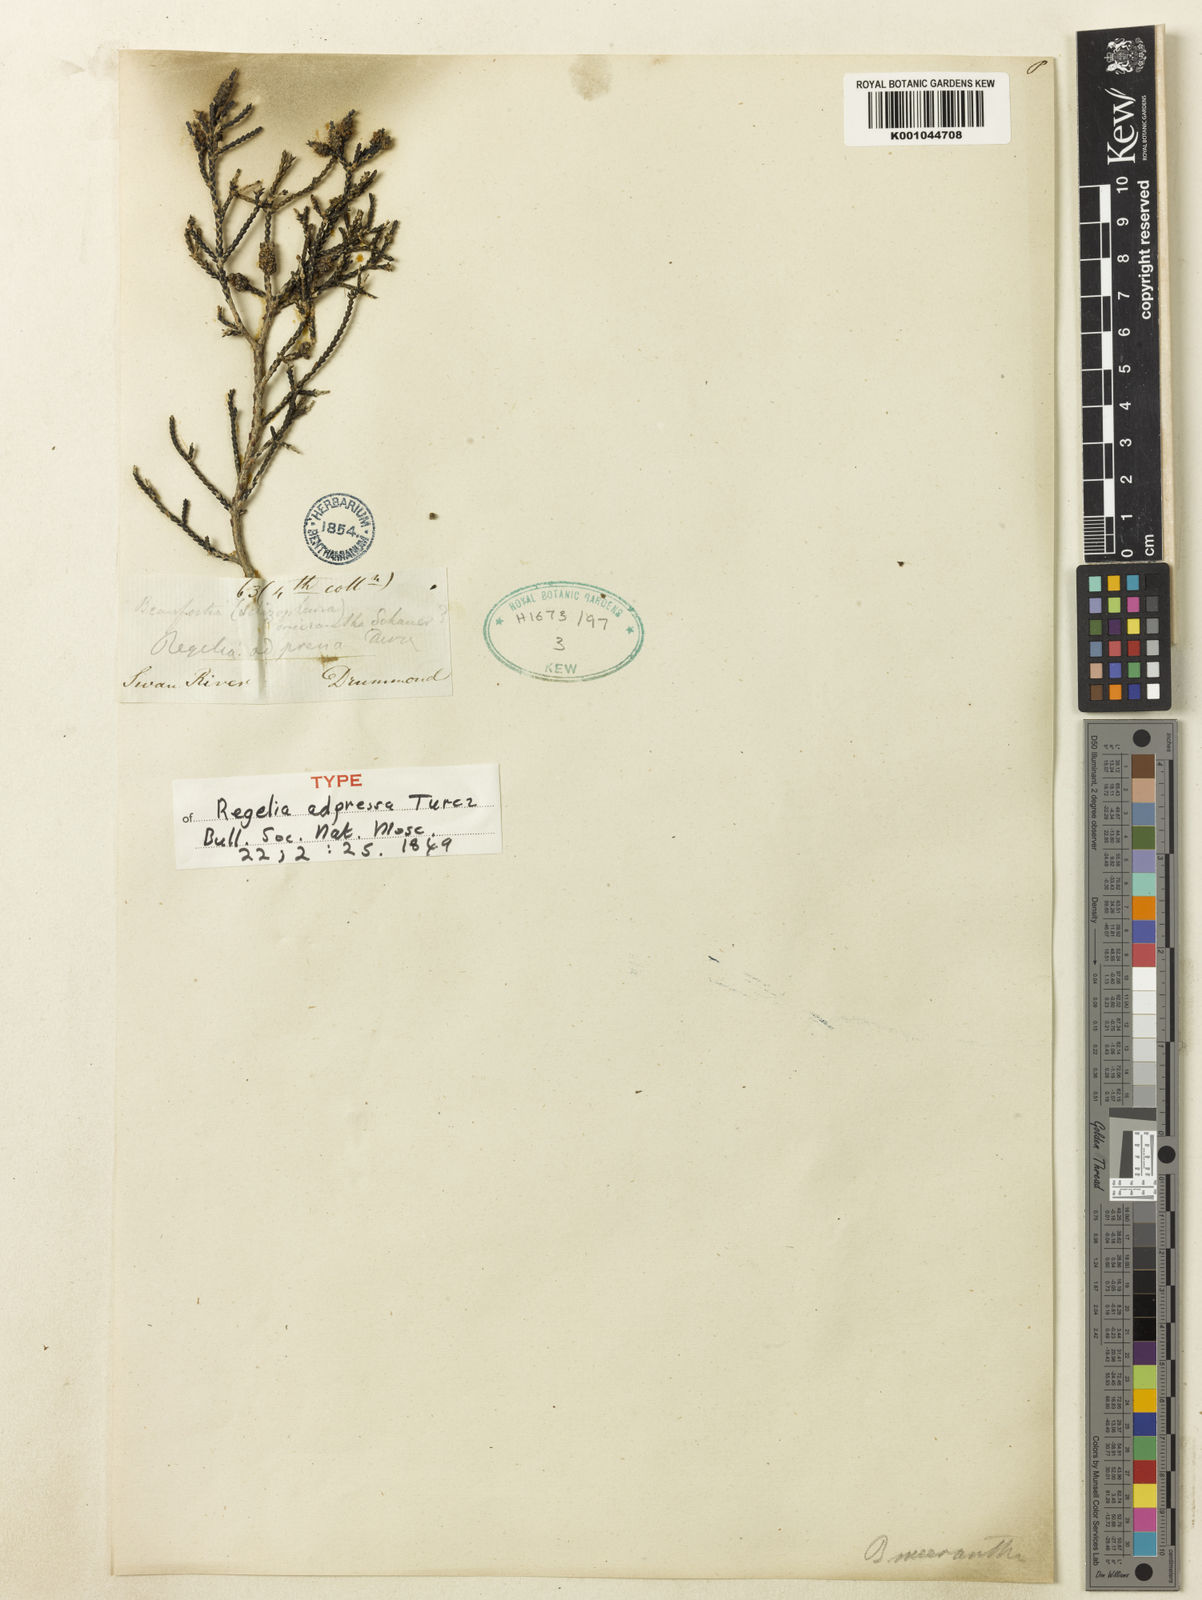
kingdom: Plantae
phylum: Tracheophyta
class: Magnoliopsida
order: Myrtales
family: Myrtaceae
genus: Melaleuca
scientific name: Melaleuca micrantha
